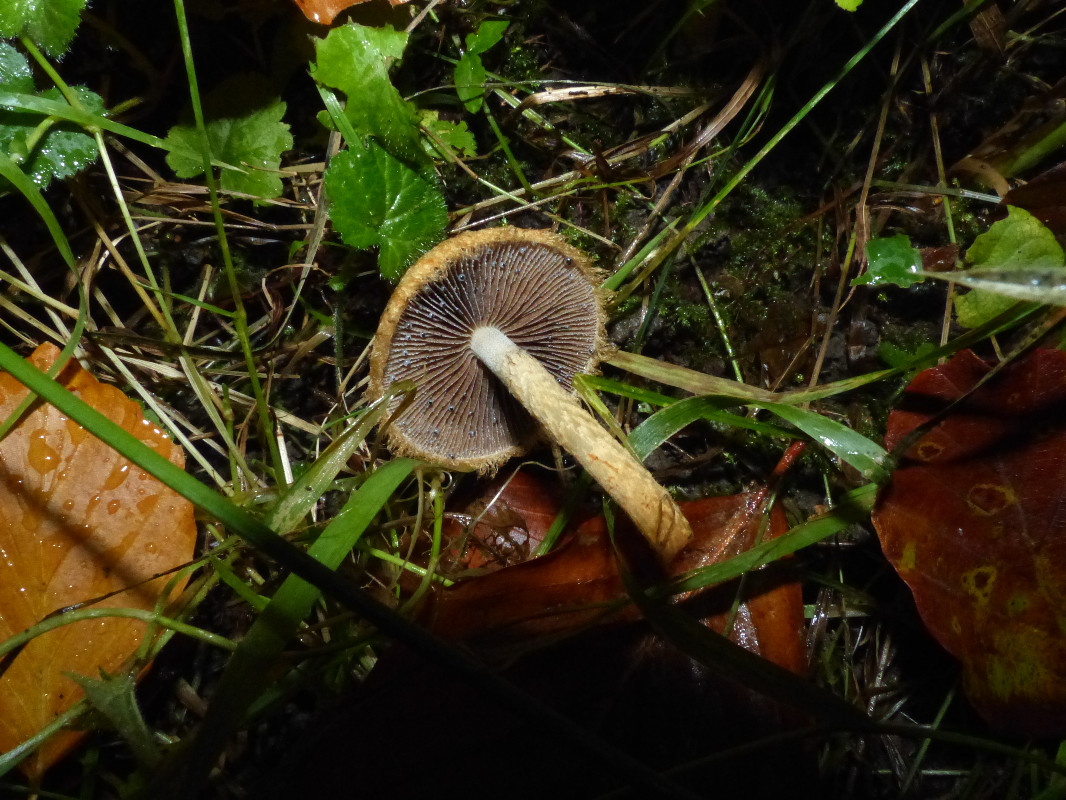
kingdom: Fungi
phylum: Basidiomycota
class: Agaricomycetes
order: Agaricales
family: Psathyrellaceae
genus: Lacrymaria
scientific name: Lacrymaria pyrotricha
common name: ildhåret mørkhat
